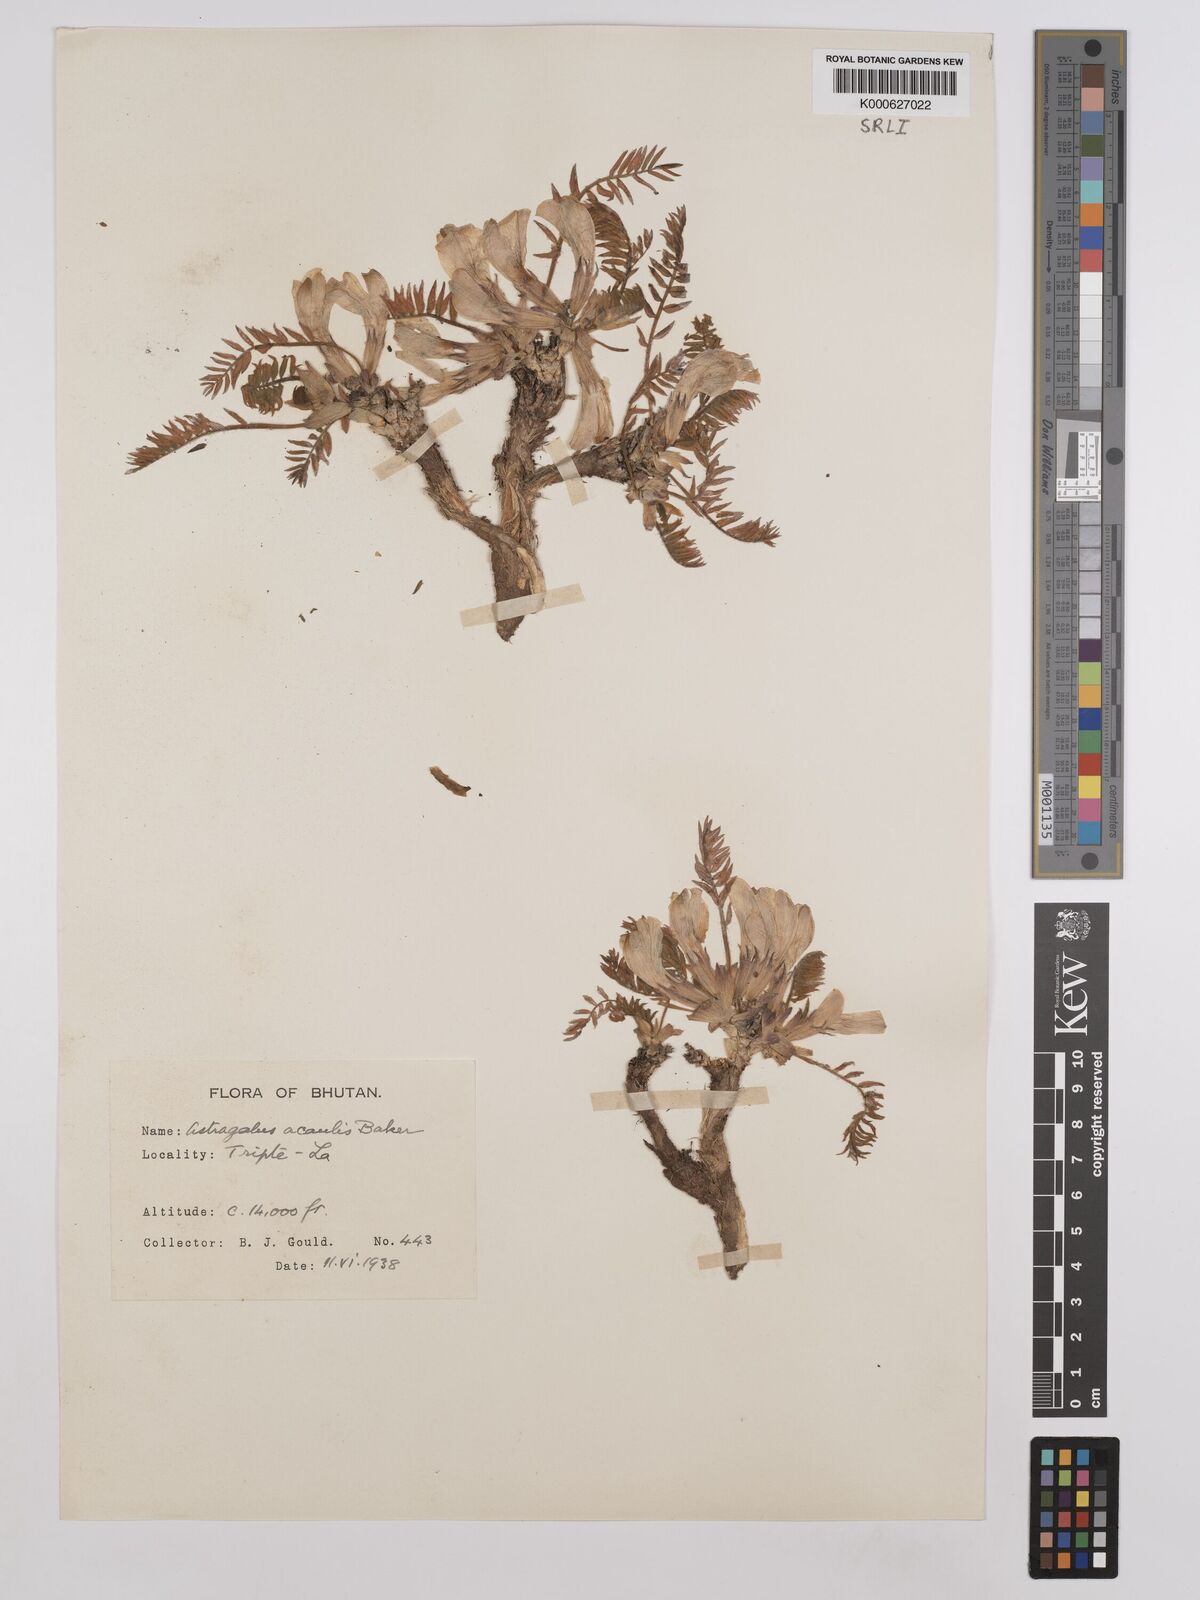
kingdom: Plantae
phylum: Tracheophyta
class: Magnoliopsida
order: Fabales
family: Fabaceae
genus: Astragalus
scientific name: Astragalus acaulis
